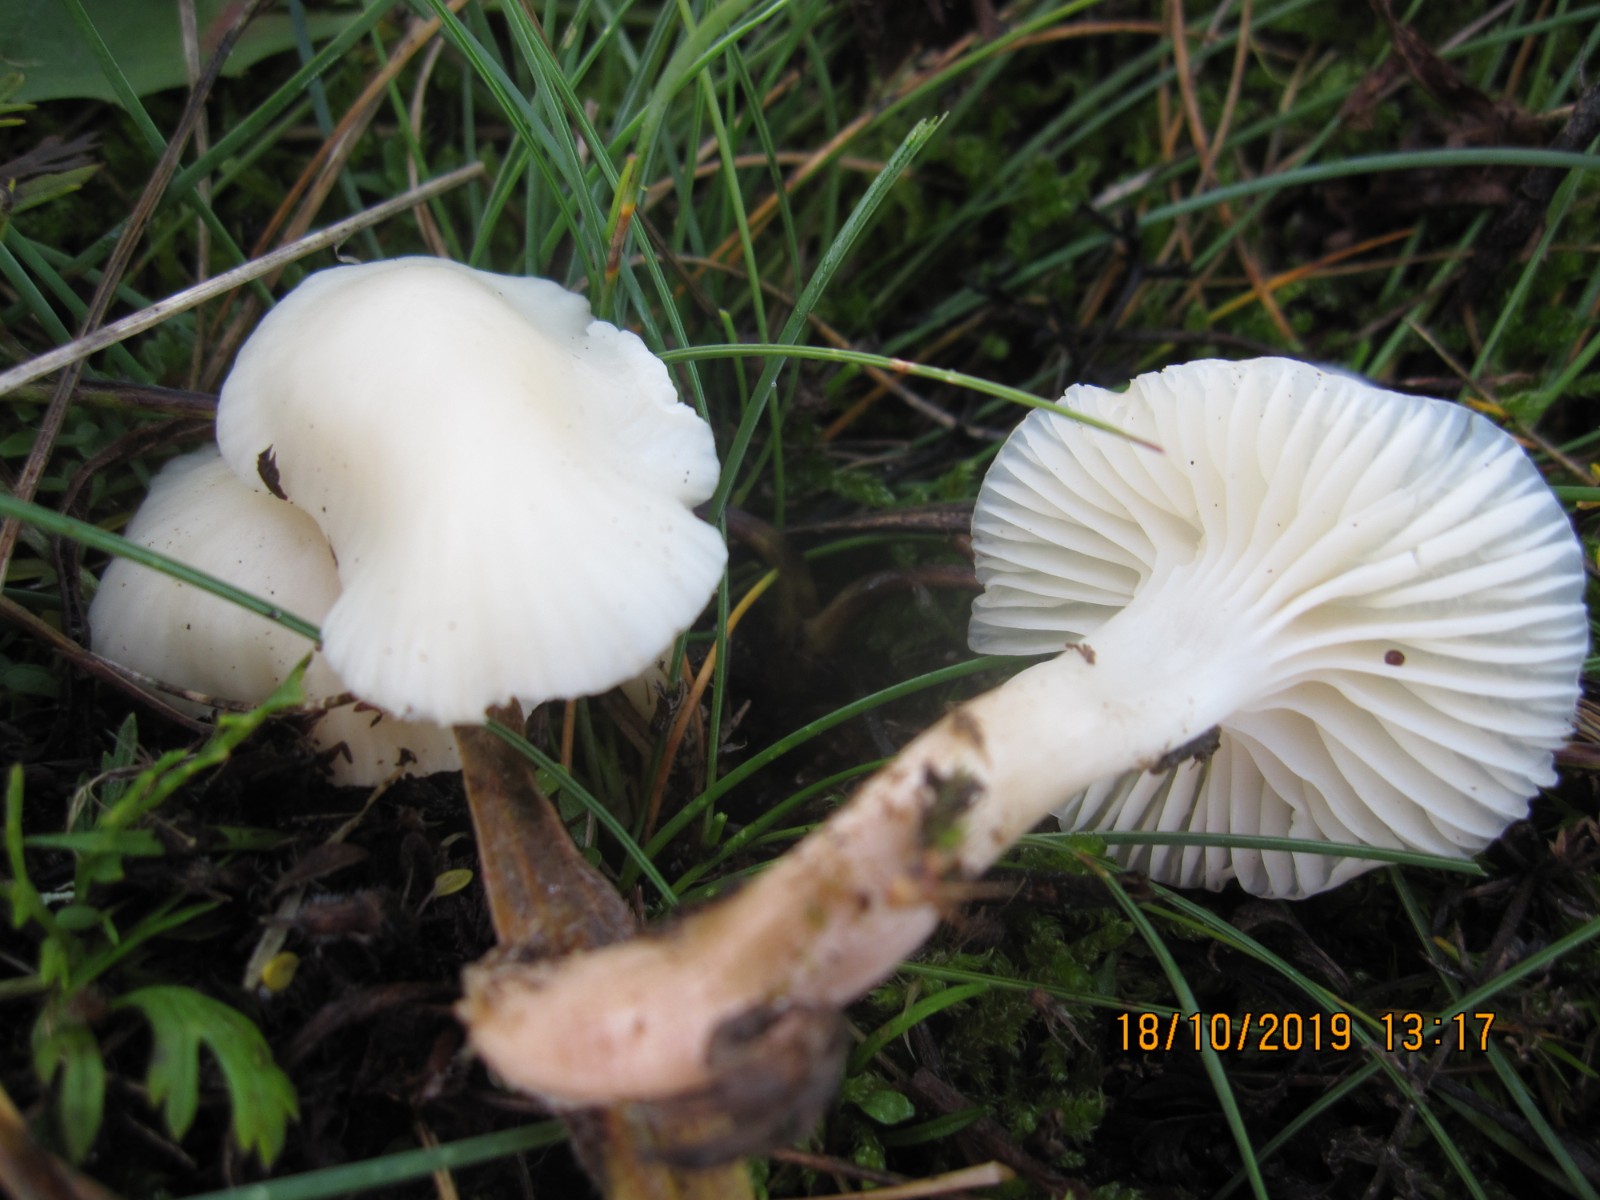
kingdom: Fungi
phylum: Basidiomycota
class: Agaricomycetes
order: Agaricales
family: Hygrophoraceae
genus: Cuphophyllus
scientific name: Cuphophyllus virgineus
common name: snehvid vokshat
